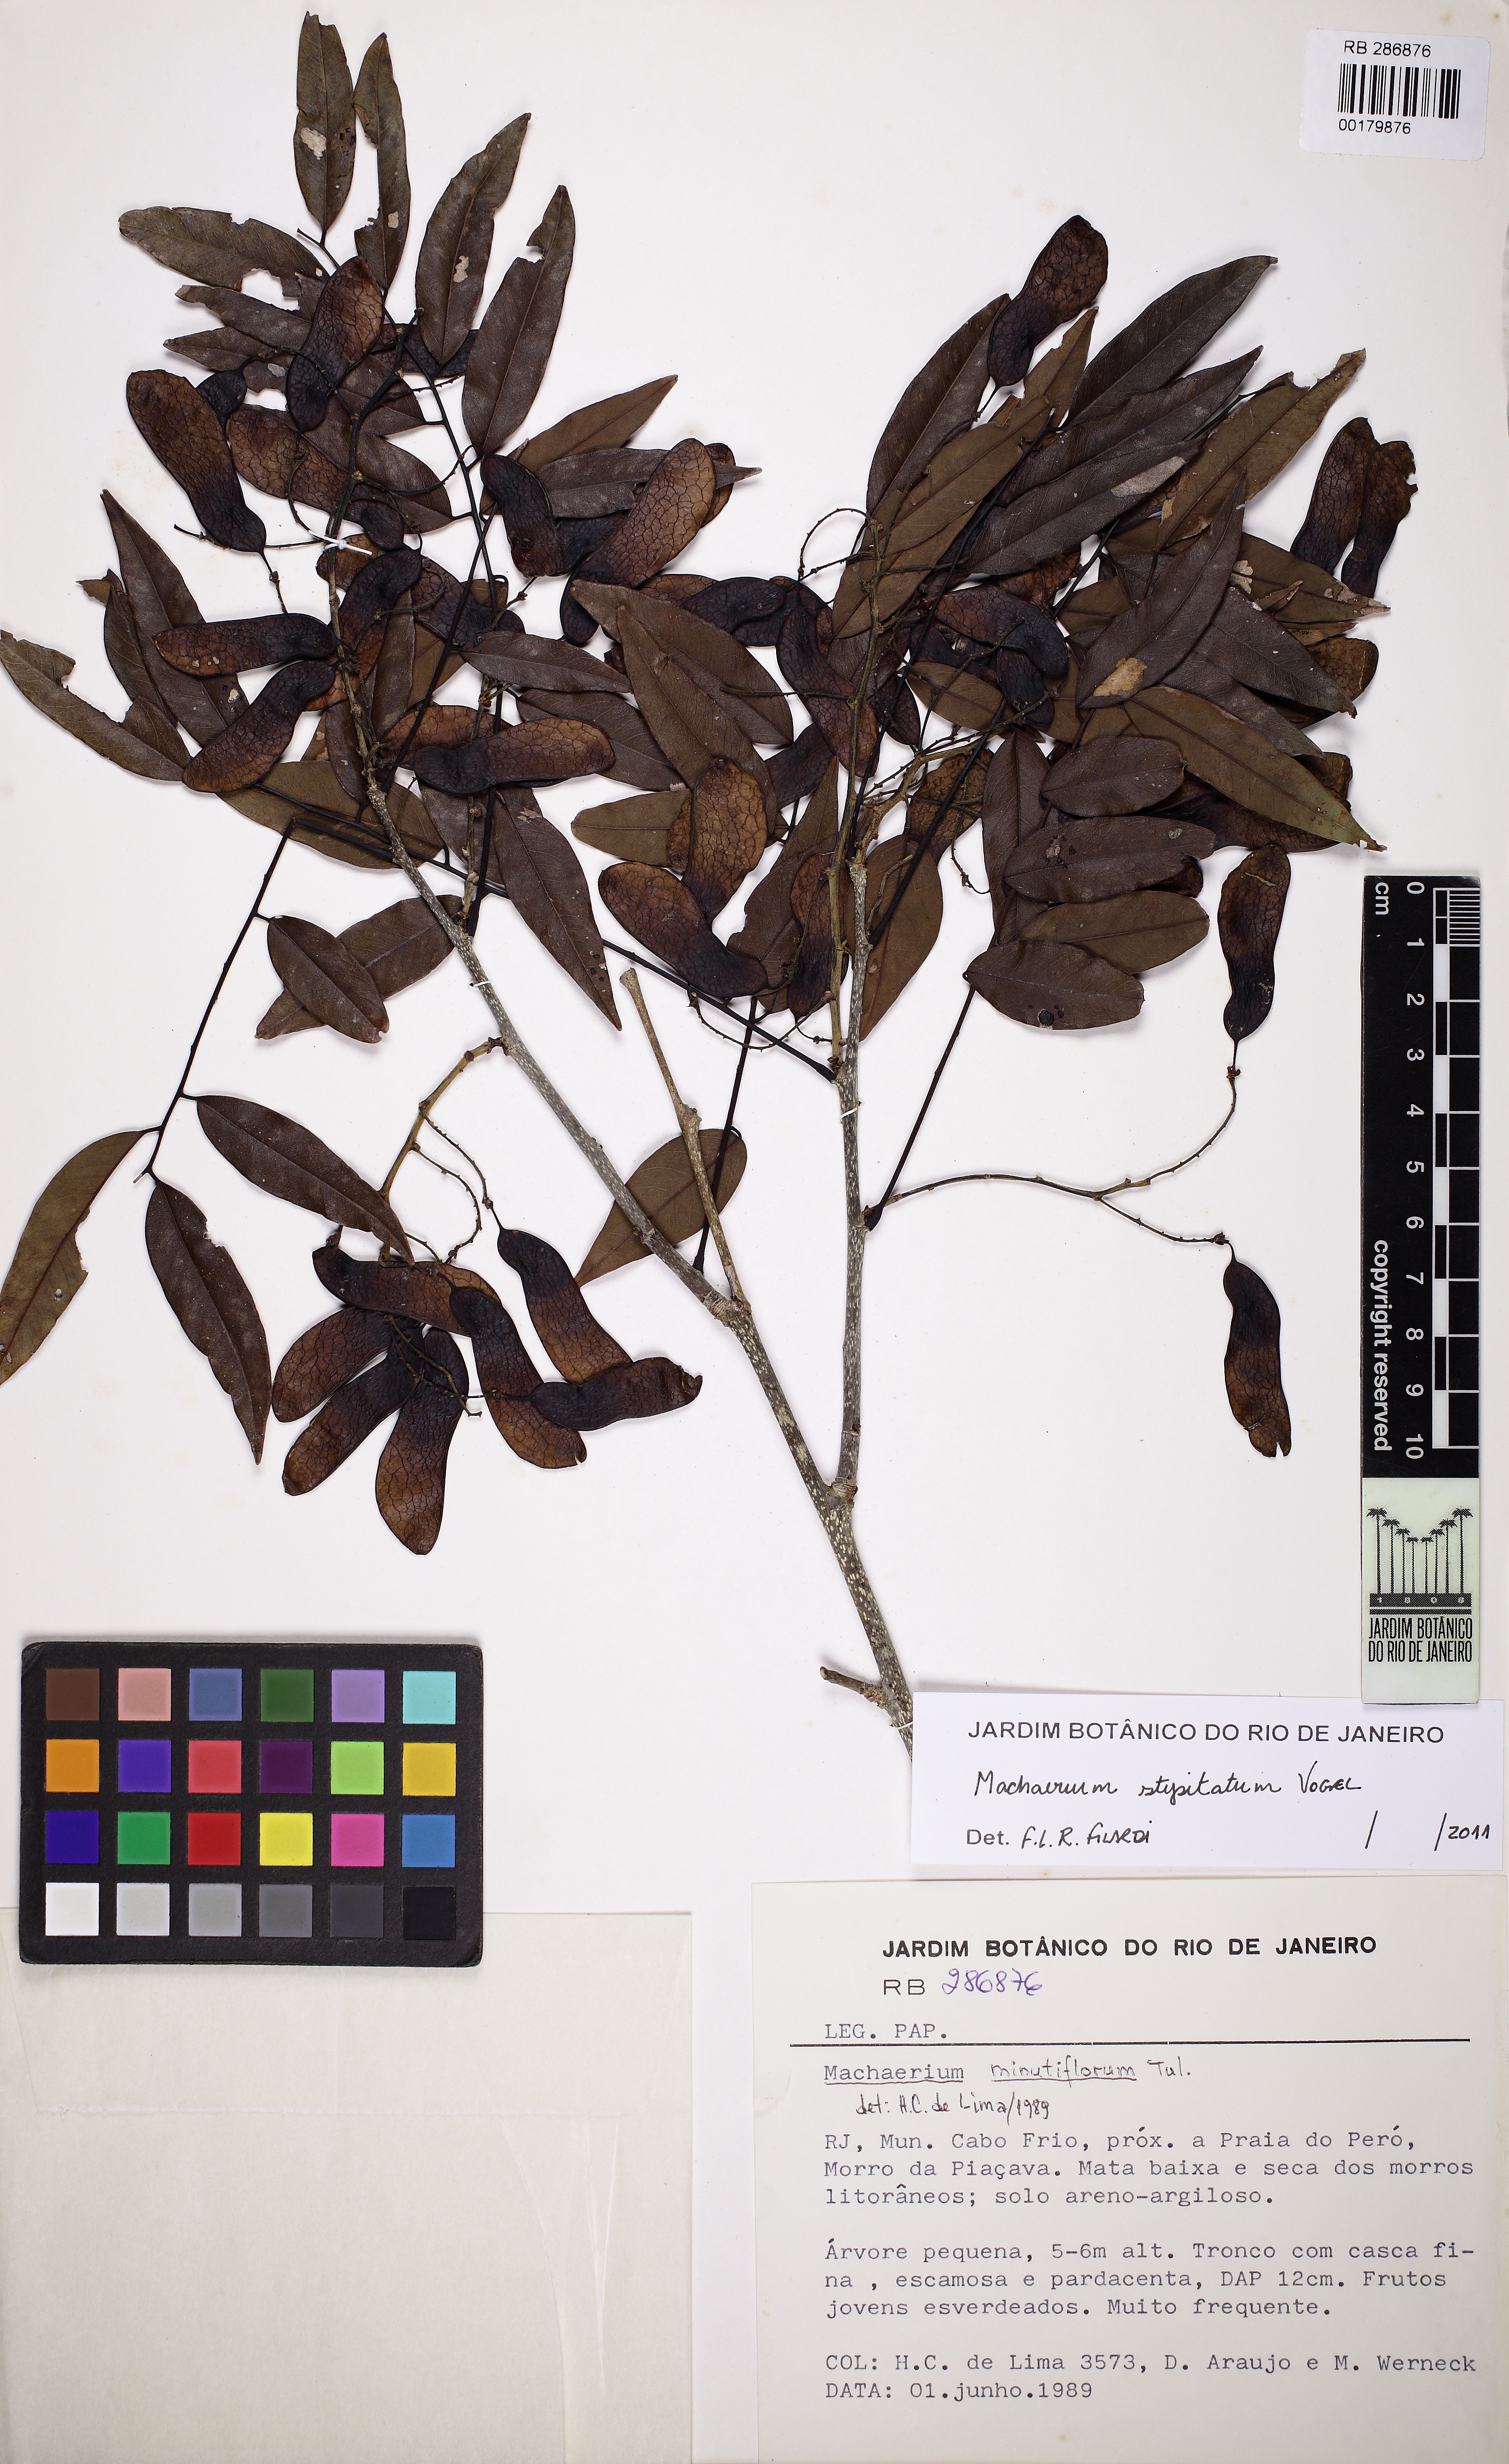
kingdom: Plantae
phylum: Tracheophyta
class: Magnoliopsida
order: Fabales
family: Fabaceae
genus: Machaerium
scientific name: Machaerium stipitatum
